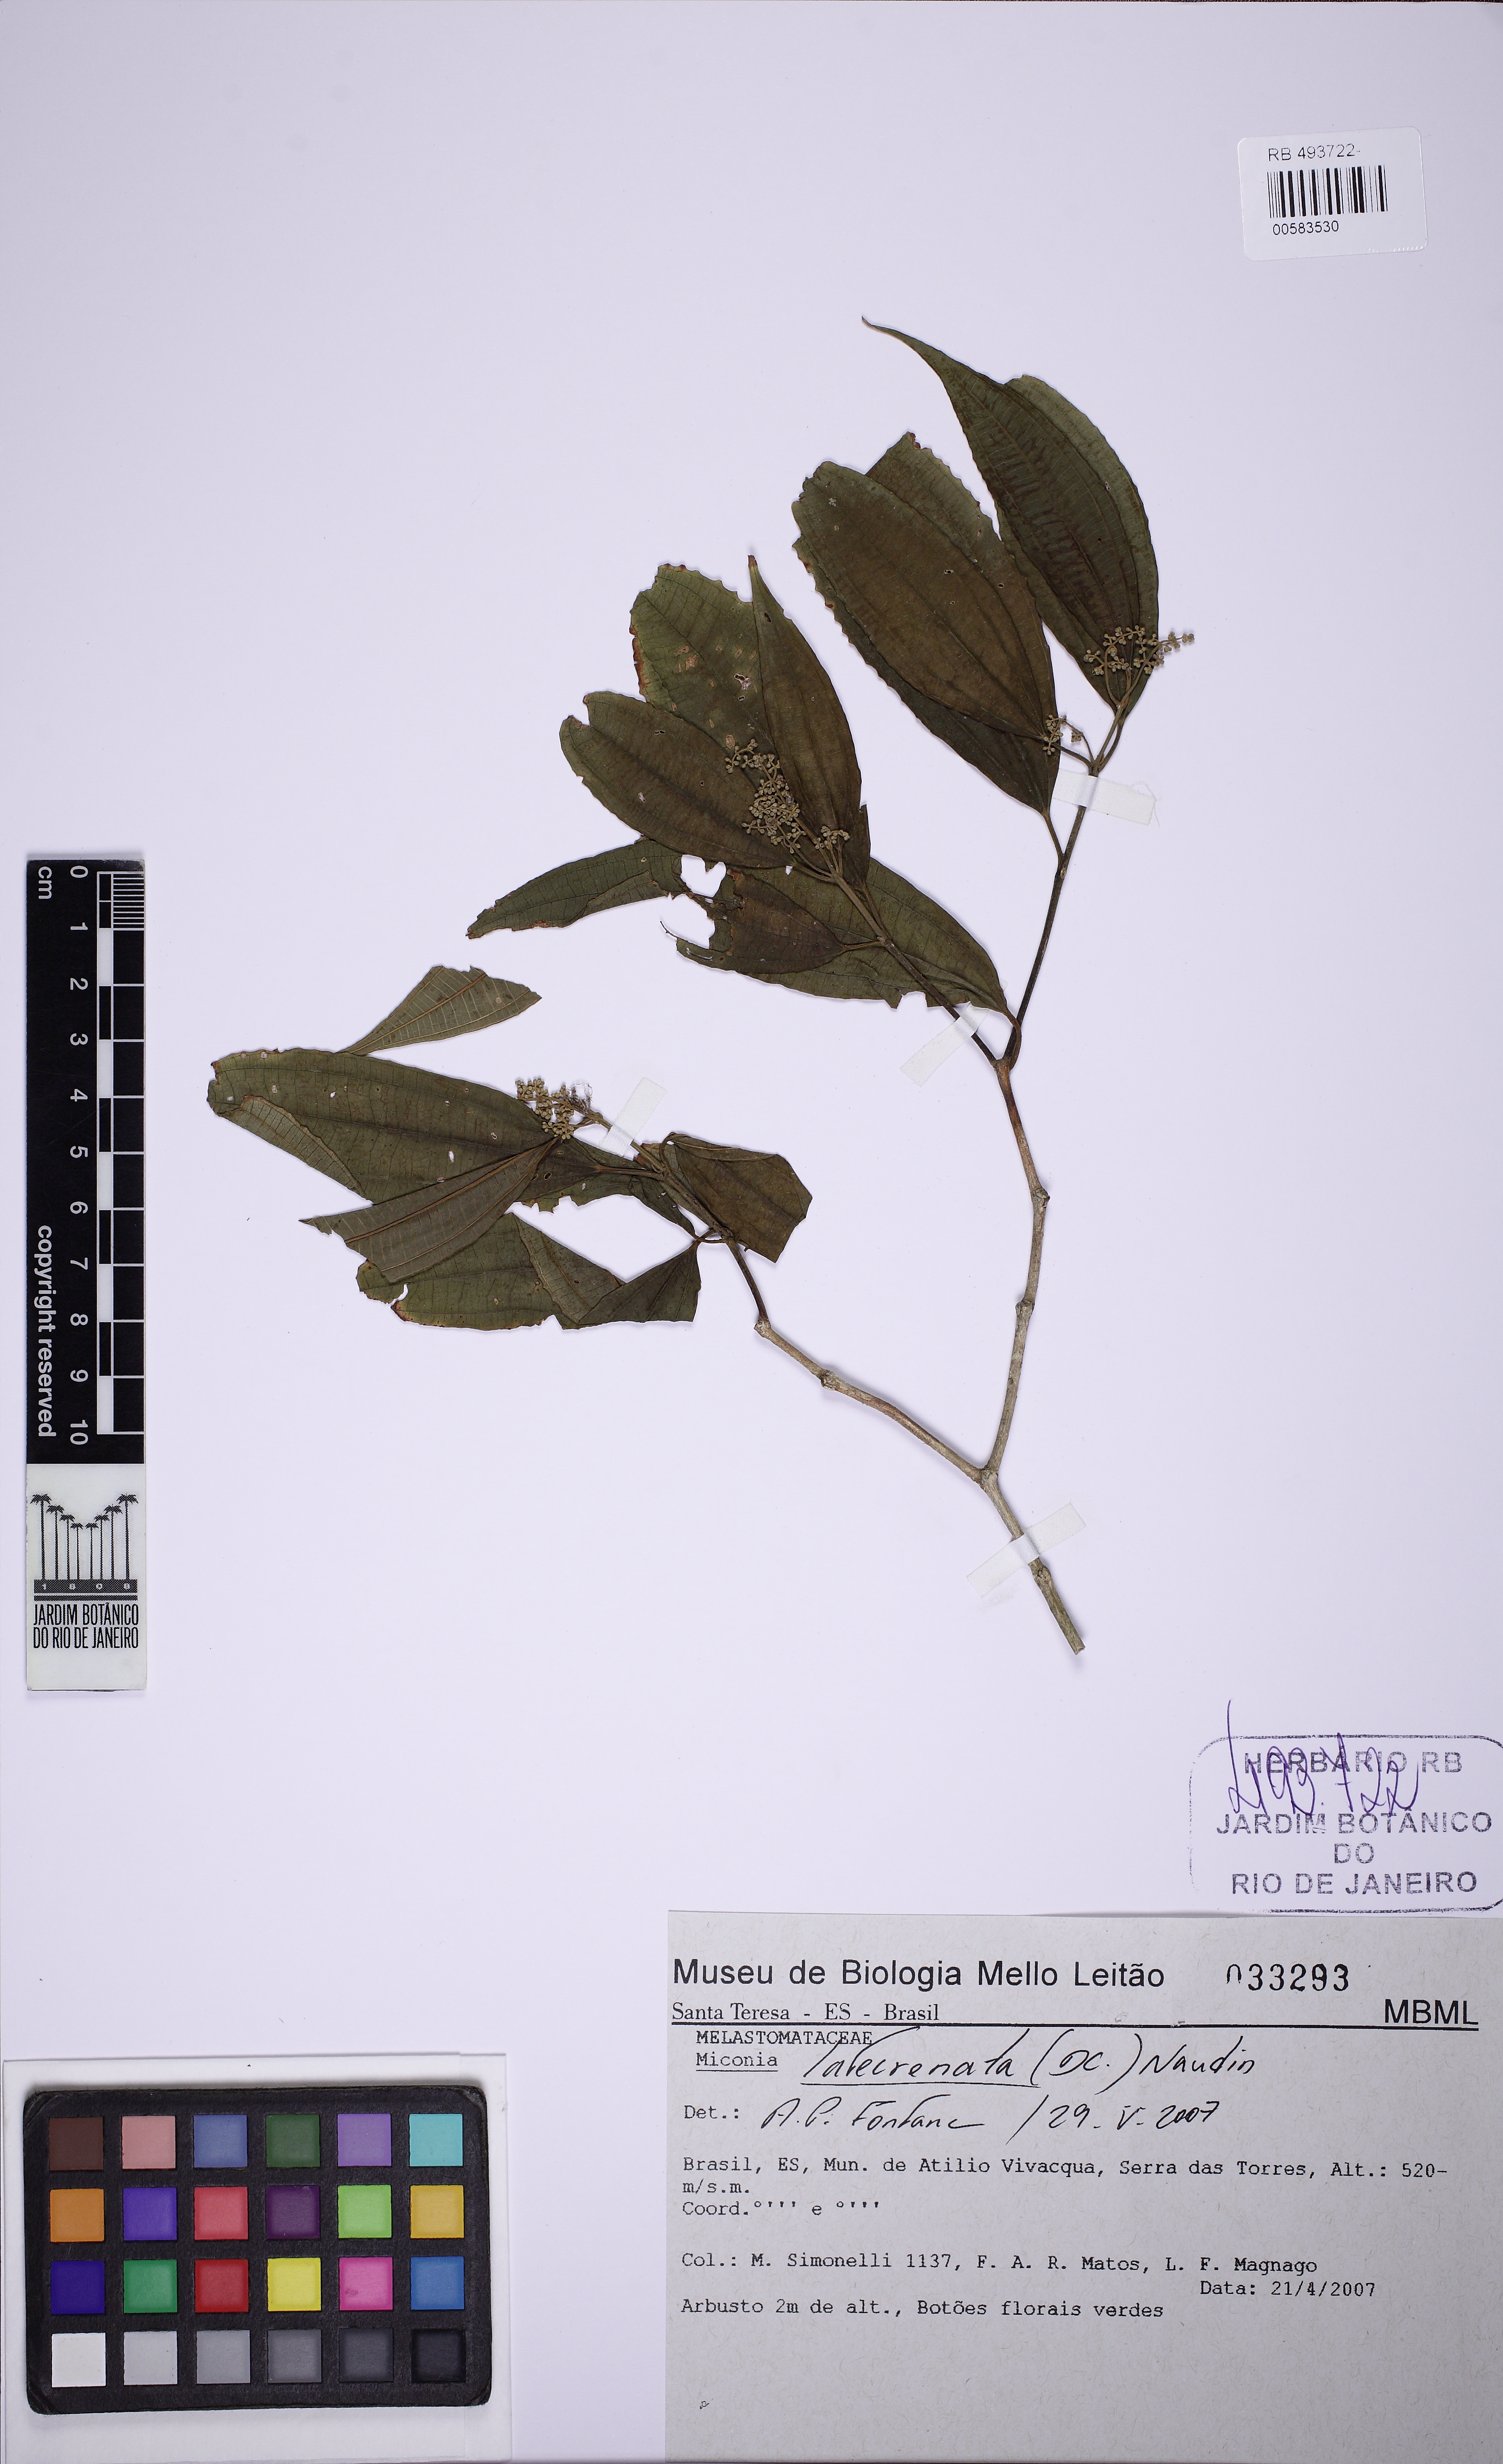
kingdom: Plantae
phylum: Tracheophyta
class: Magnoliopsida
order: Myrtales
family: Melastomataceae
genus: Miconia
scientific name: Miconia latecrenata
